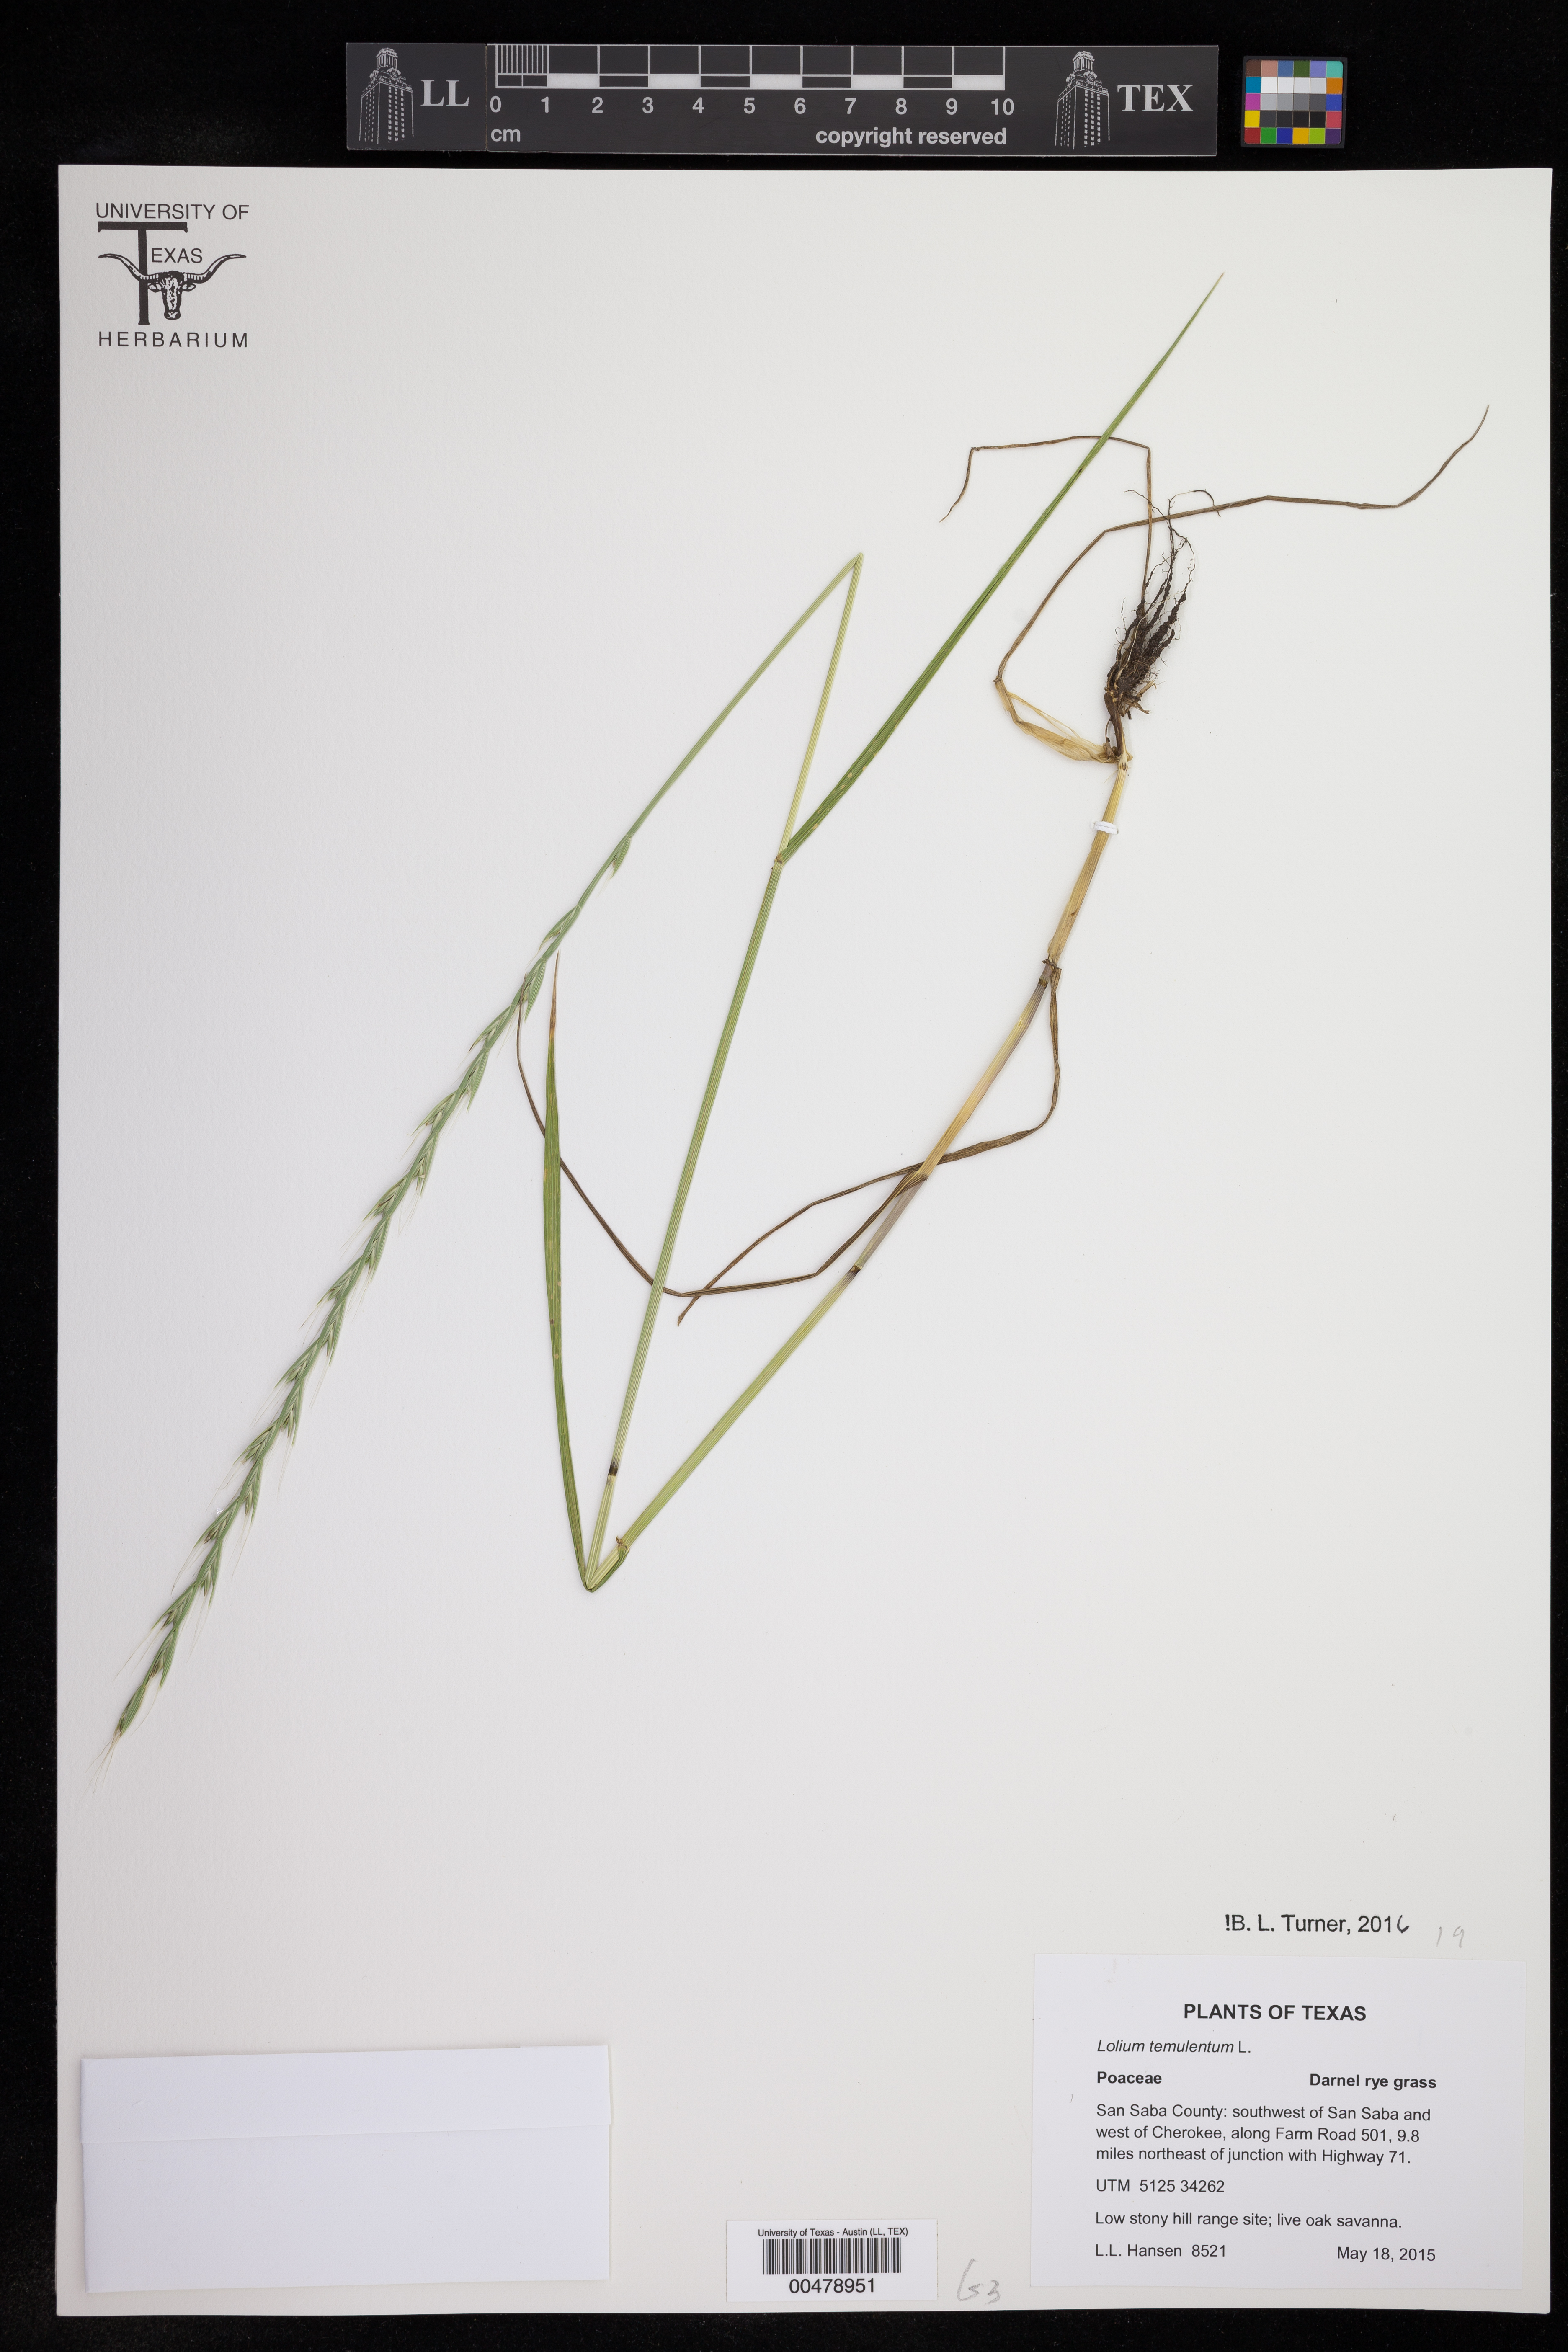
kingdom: Plantae
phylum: Tracheophyta
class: Liliopsida
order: Poales
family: Poaceae
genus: Lolium
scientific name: Lolium temulentum
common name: Darnel
